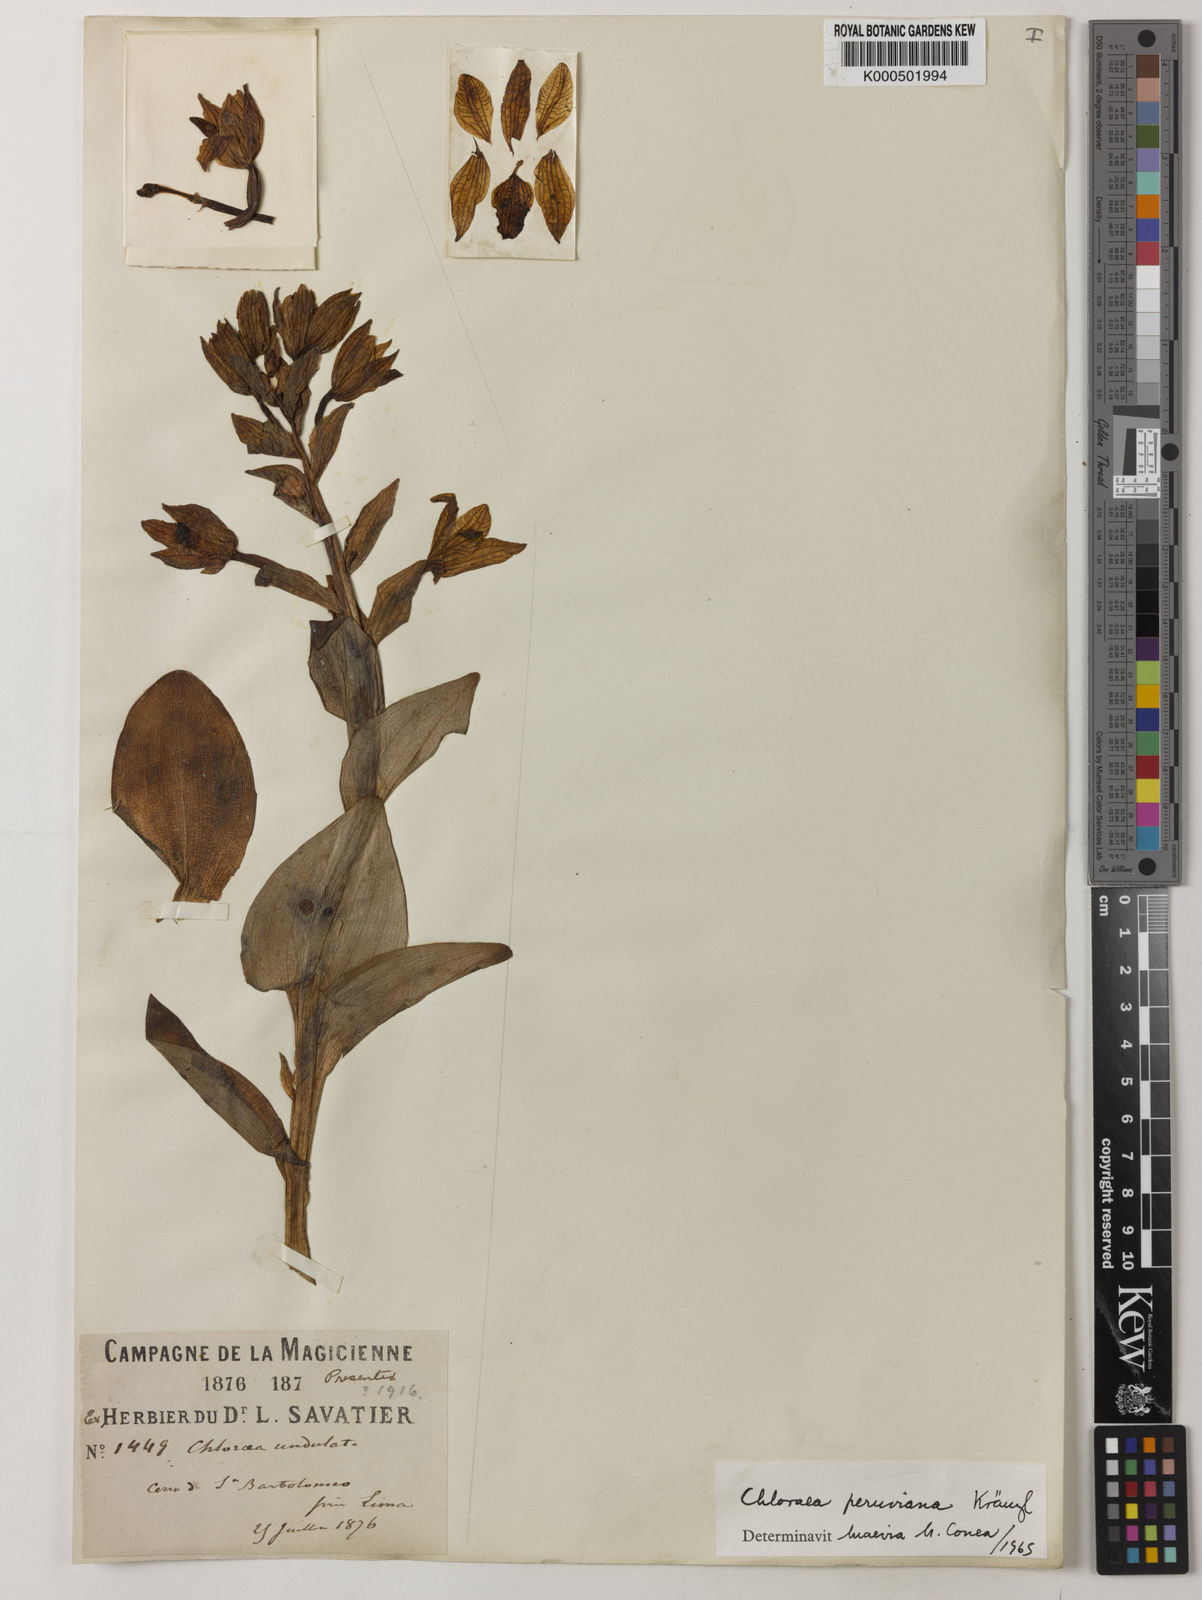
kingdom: Plantae
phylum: Tracheophyta
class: Liliopsida
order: Asparagales
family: Orchidaceae
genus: Chloraea
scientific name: Chloraea pavonii
